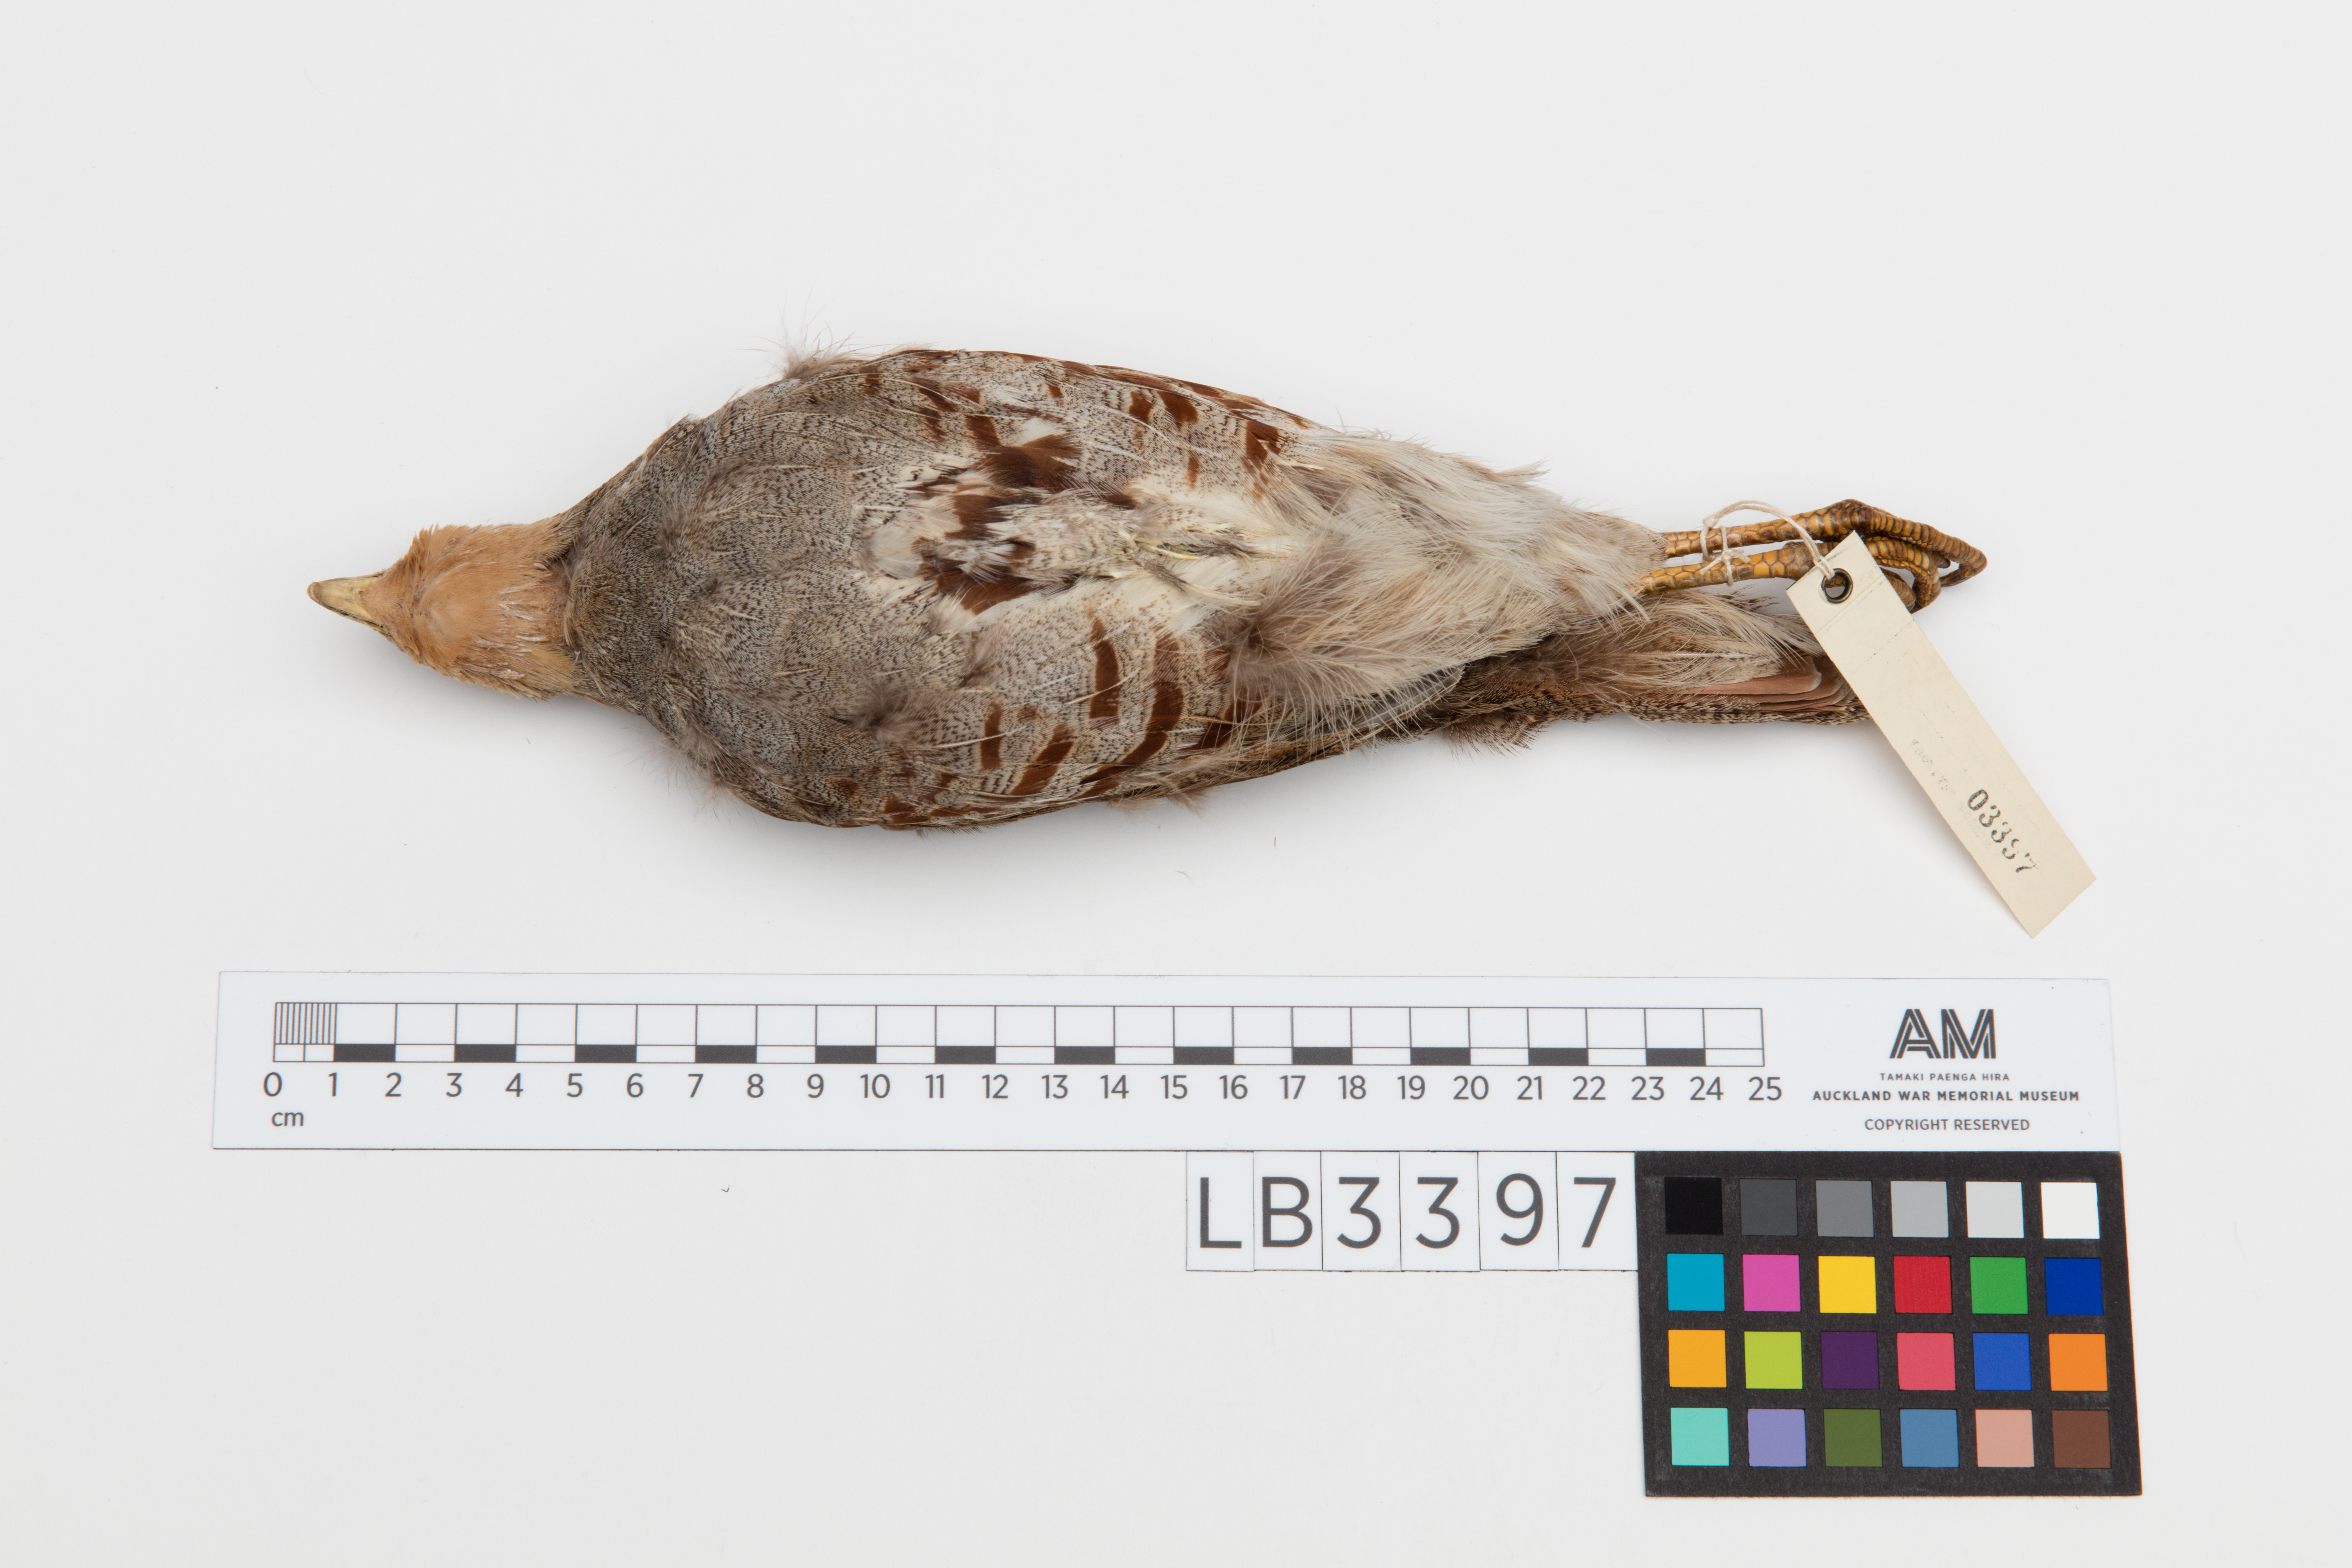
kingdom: Animalia
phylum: Chordata
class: Aves
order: Galliformes
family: Phasianidae
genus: Perdix
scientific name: Perdix perdix
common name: Grey partridge
